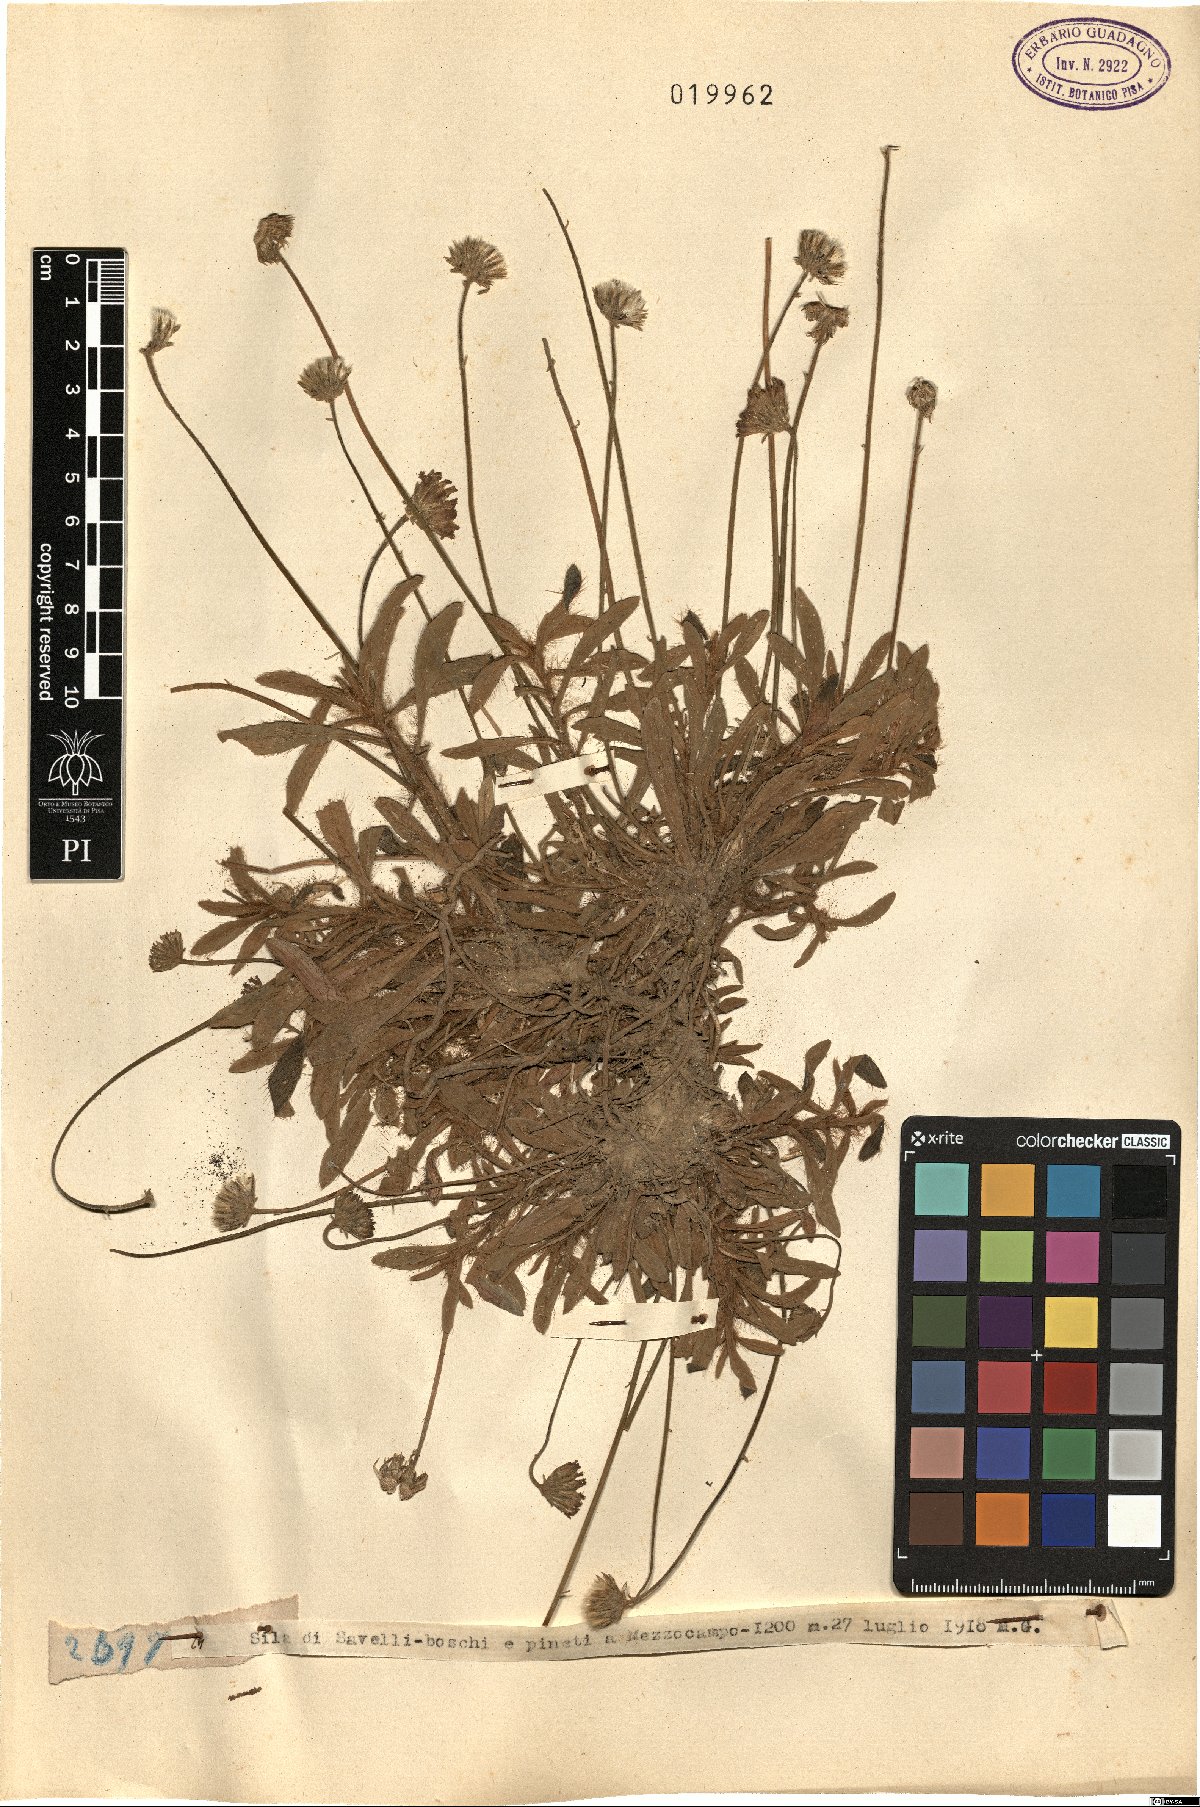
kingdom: Plantae
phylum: Tracheophyta
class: Magnoliopsida
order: Asterales
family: Asteraceae
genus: Hieracium
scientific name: Hieracium
